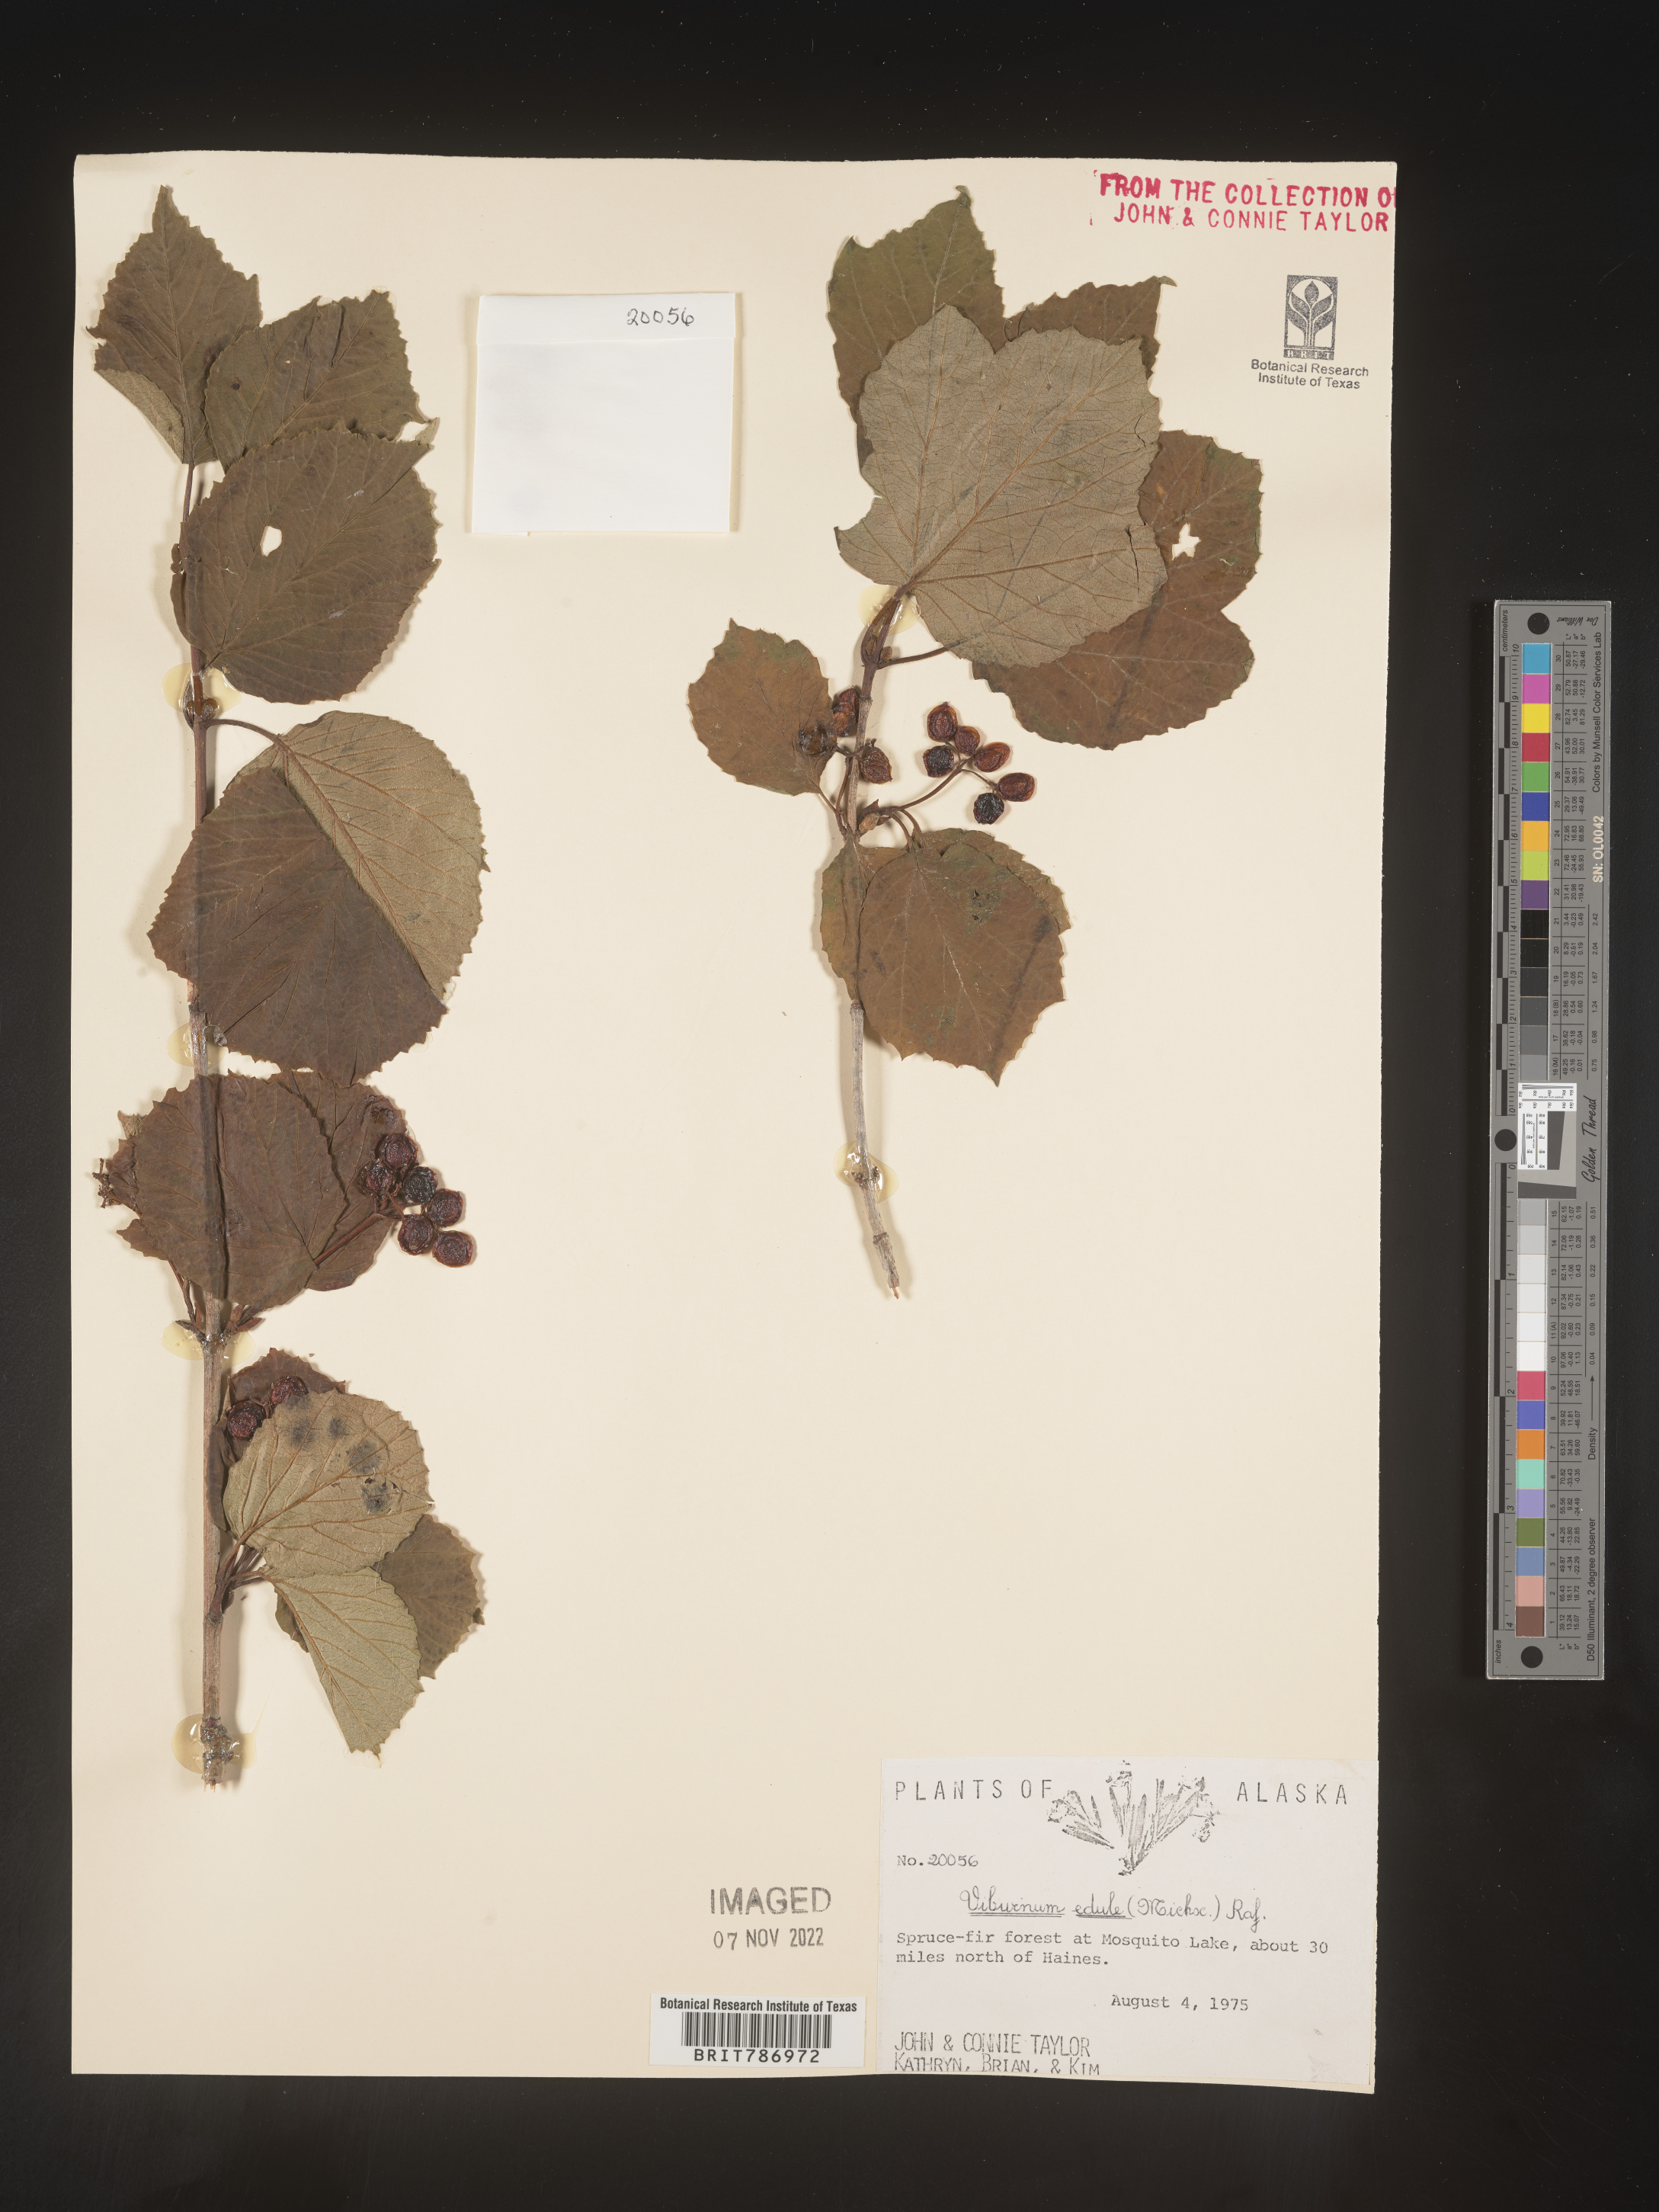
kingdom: Plantae
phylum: Tracheophyta
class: Magnoliopsida
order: Dipsacales
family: Viburnaceae
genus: Viburnum
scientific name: Viburnum edule
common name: Mooseberry
